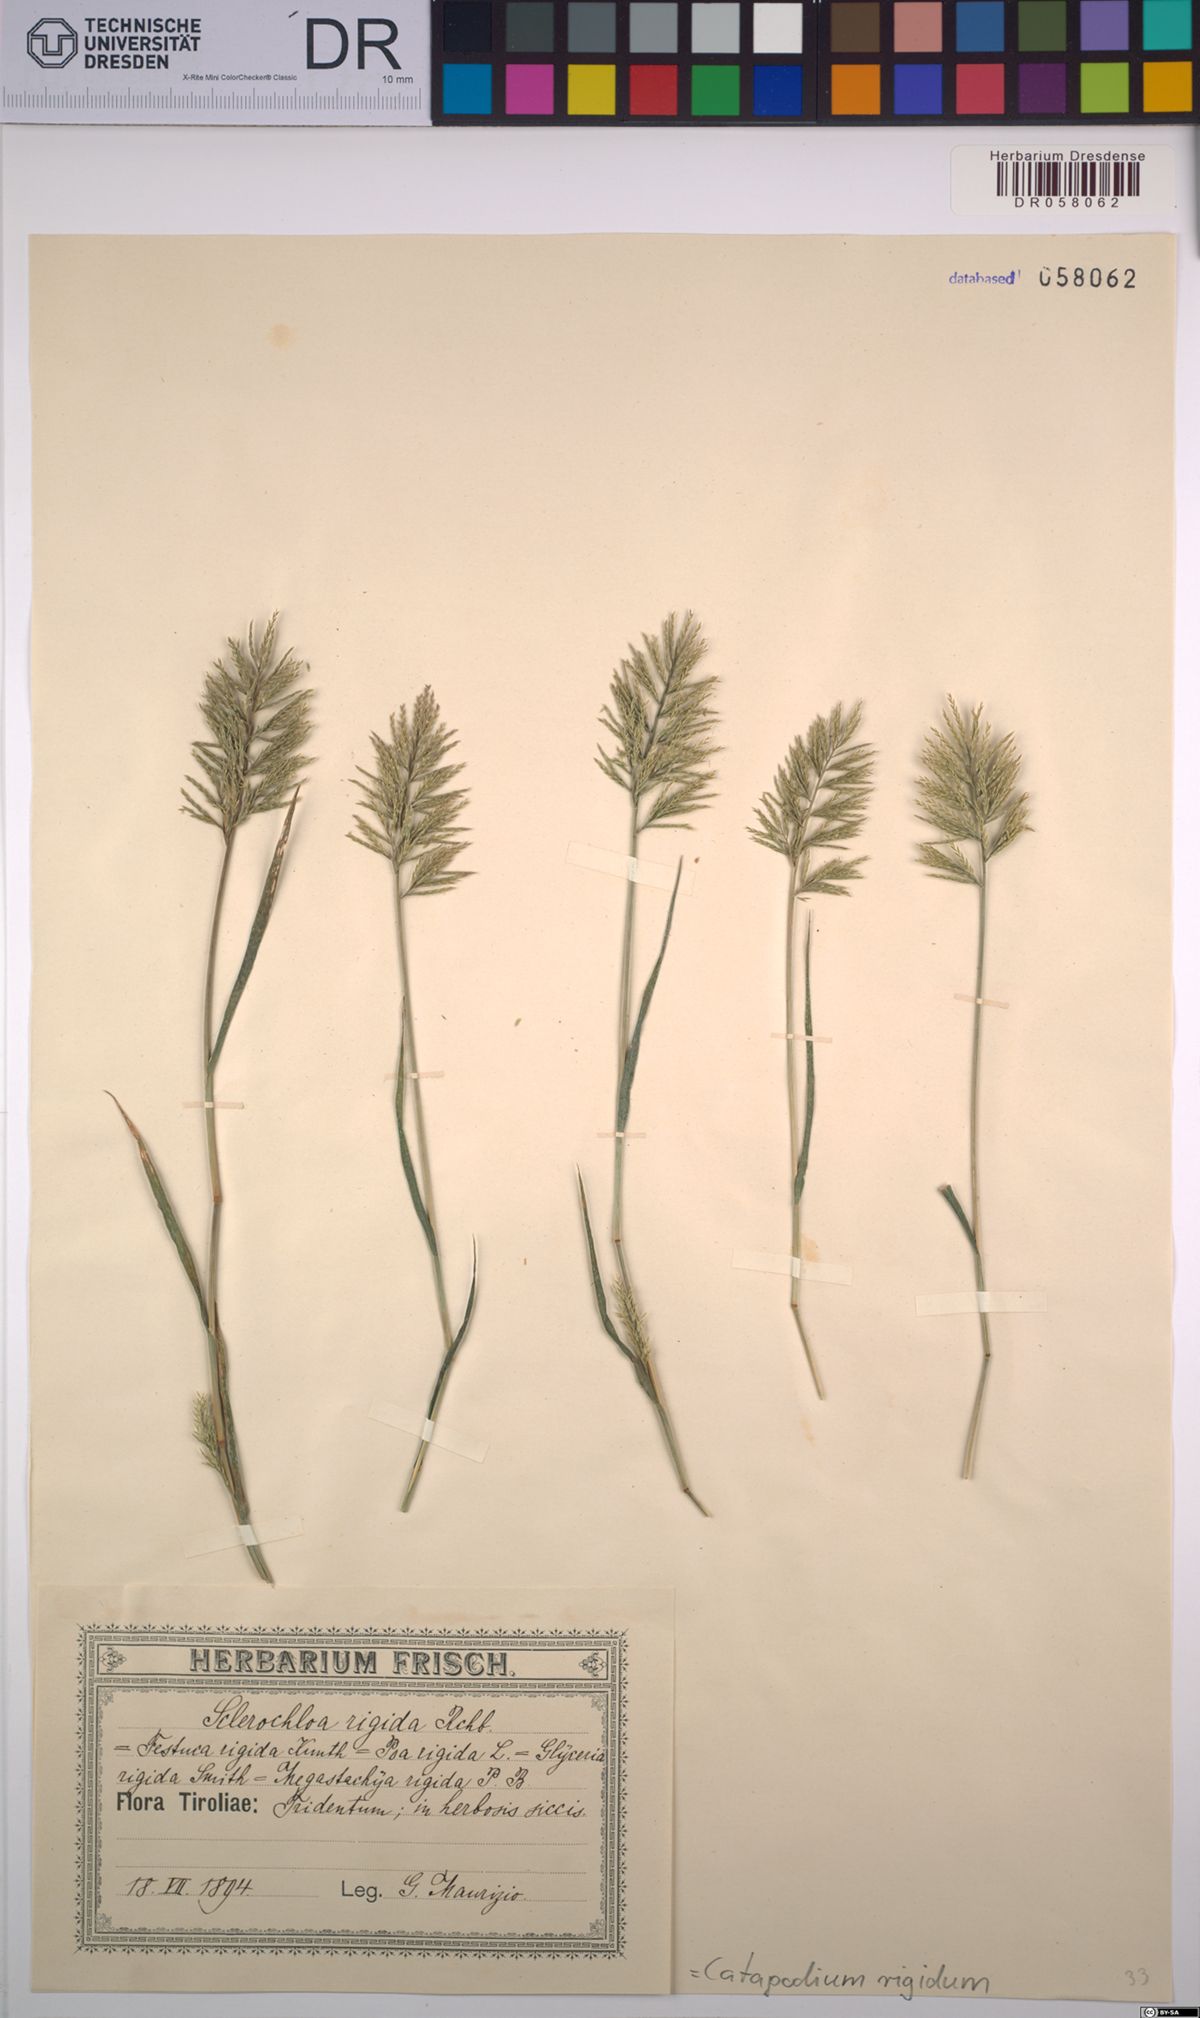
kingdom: Plantae
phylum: Tracheophyta
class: Liliopsida
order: Poales
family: Poaceae
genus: Catapodium
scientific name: Catapodium rigidum
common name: Fern-grass
